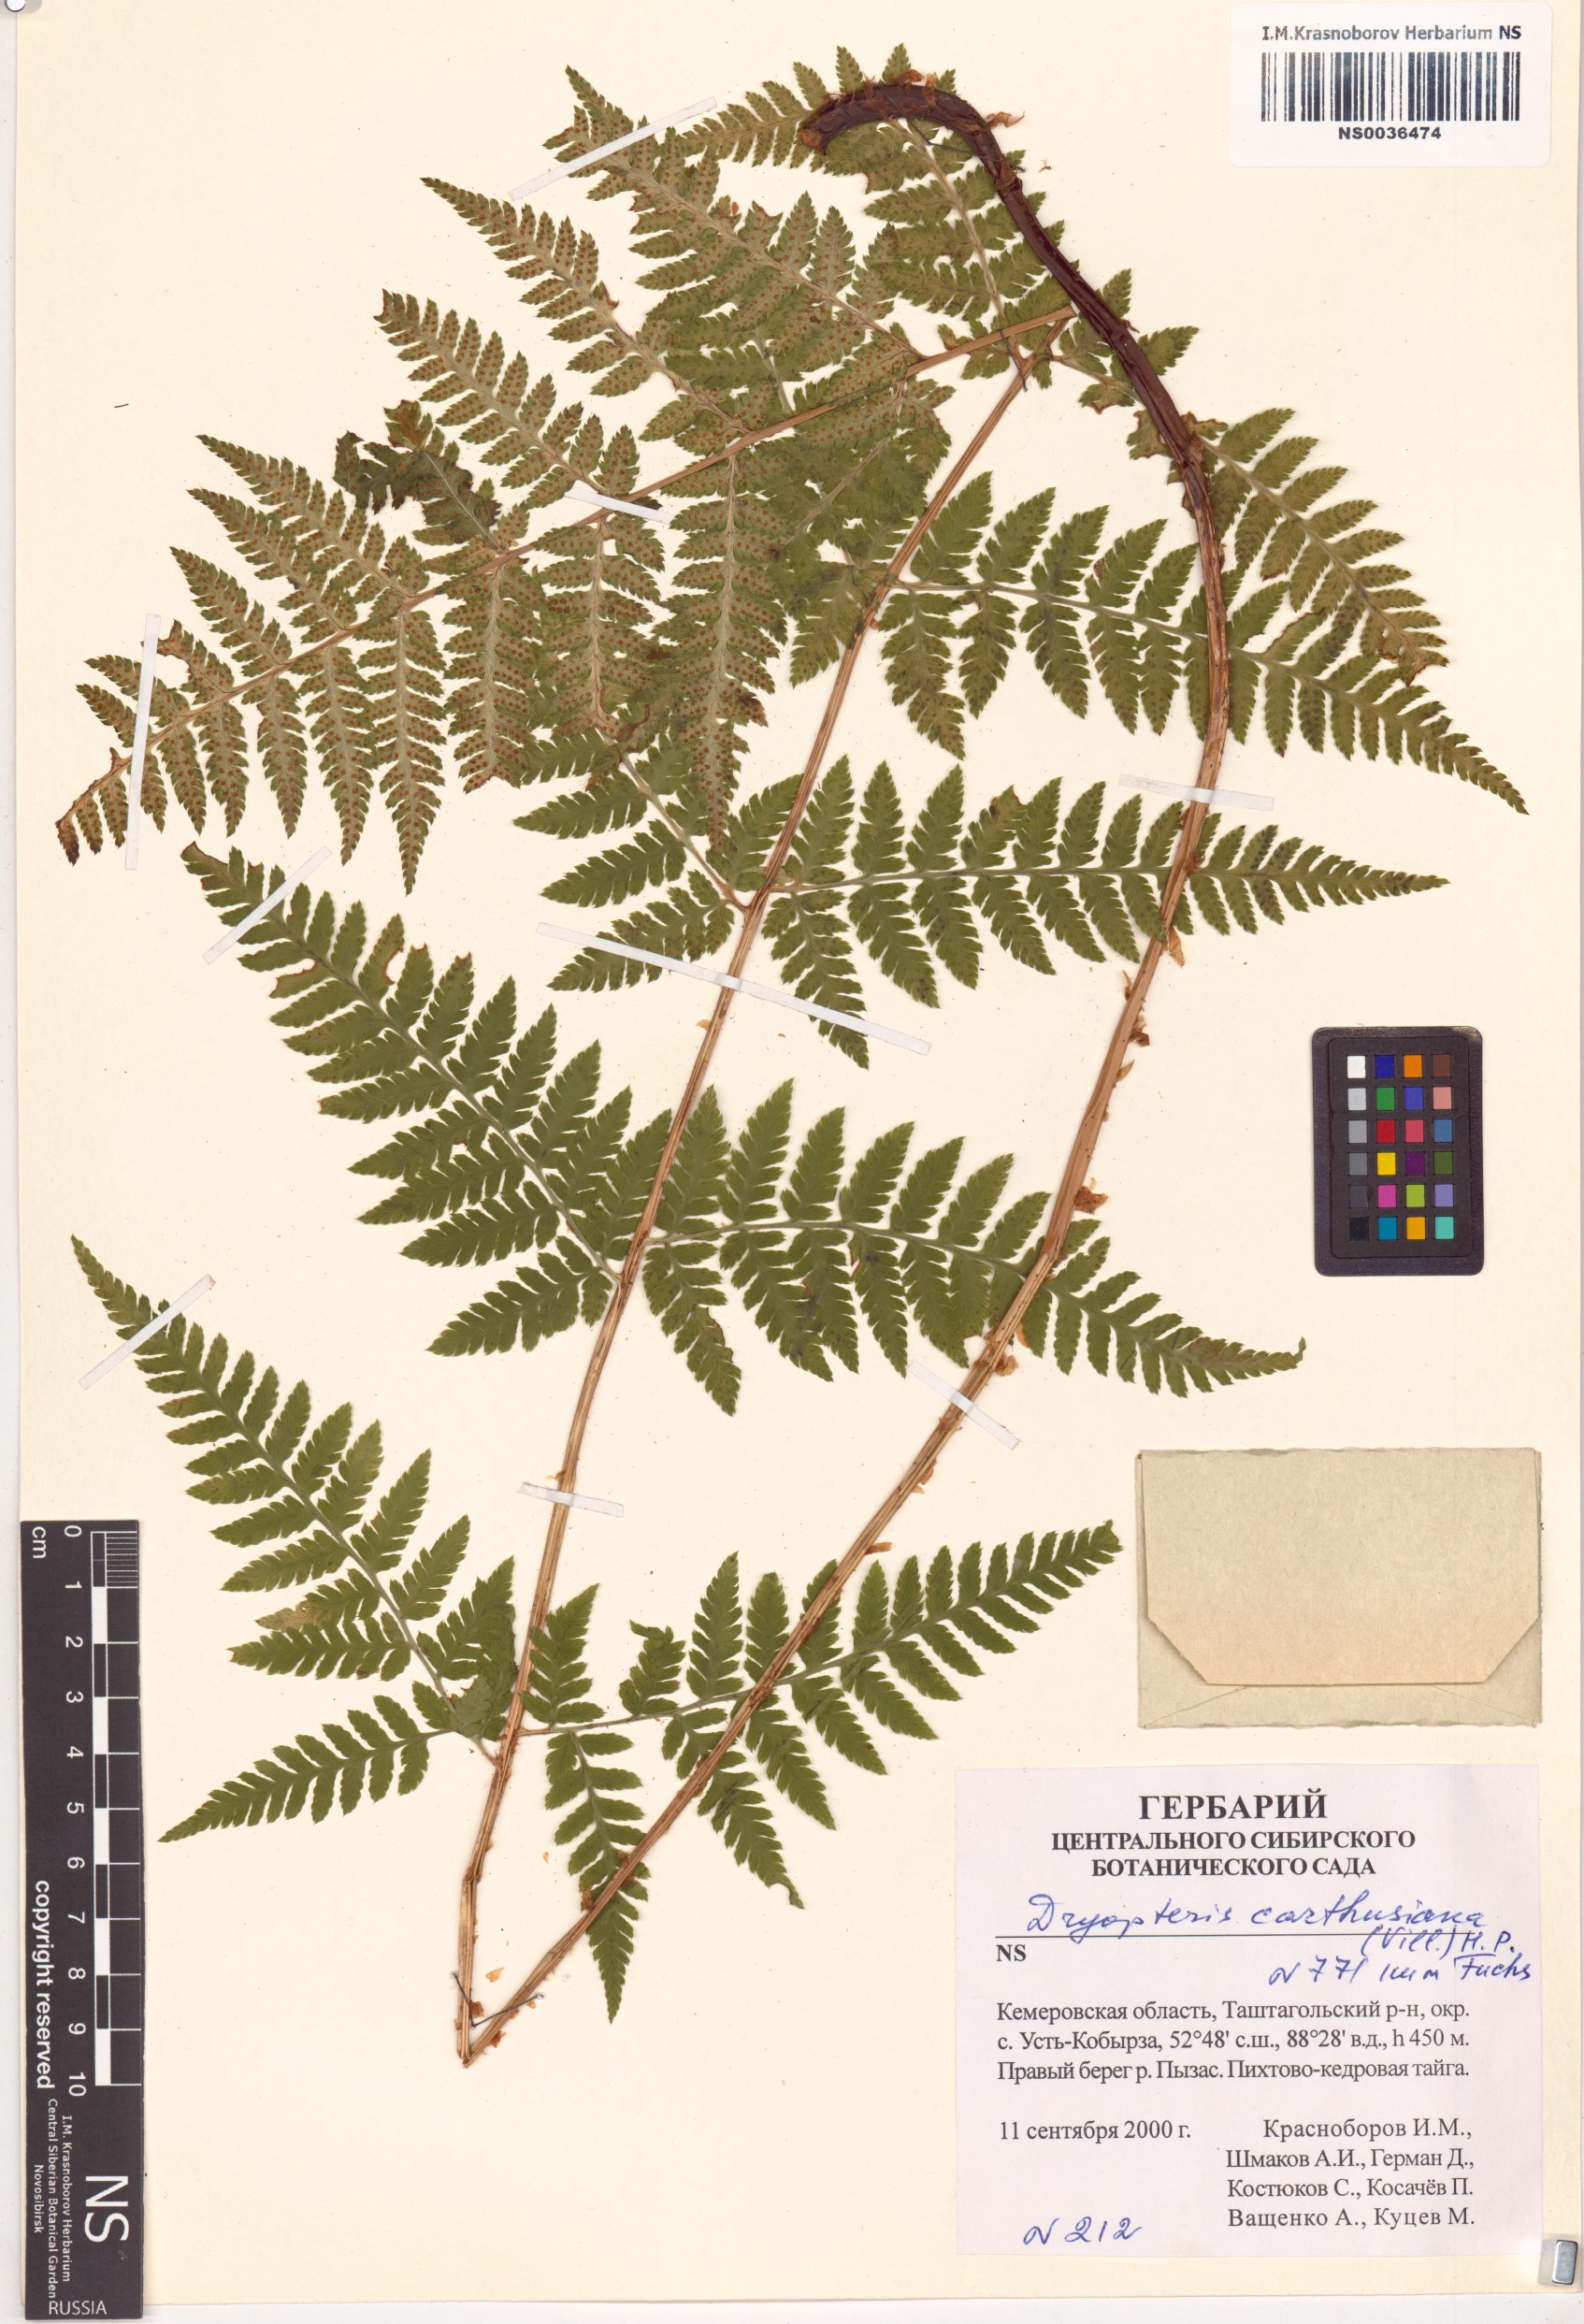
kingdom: Plantae
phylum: Tracheophyta
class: Polypodiopsida
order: Polypodiales
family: Dryopteridaceae
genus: Dryopteris
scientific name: Dryopteris carthusiana
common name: Narrow buckler-fern
